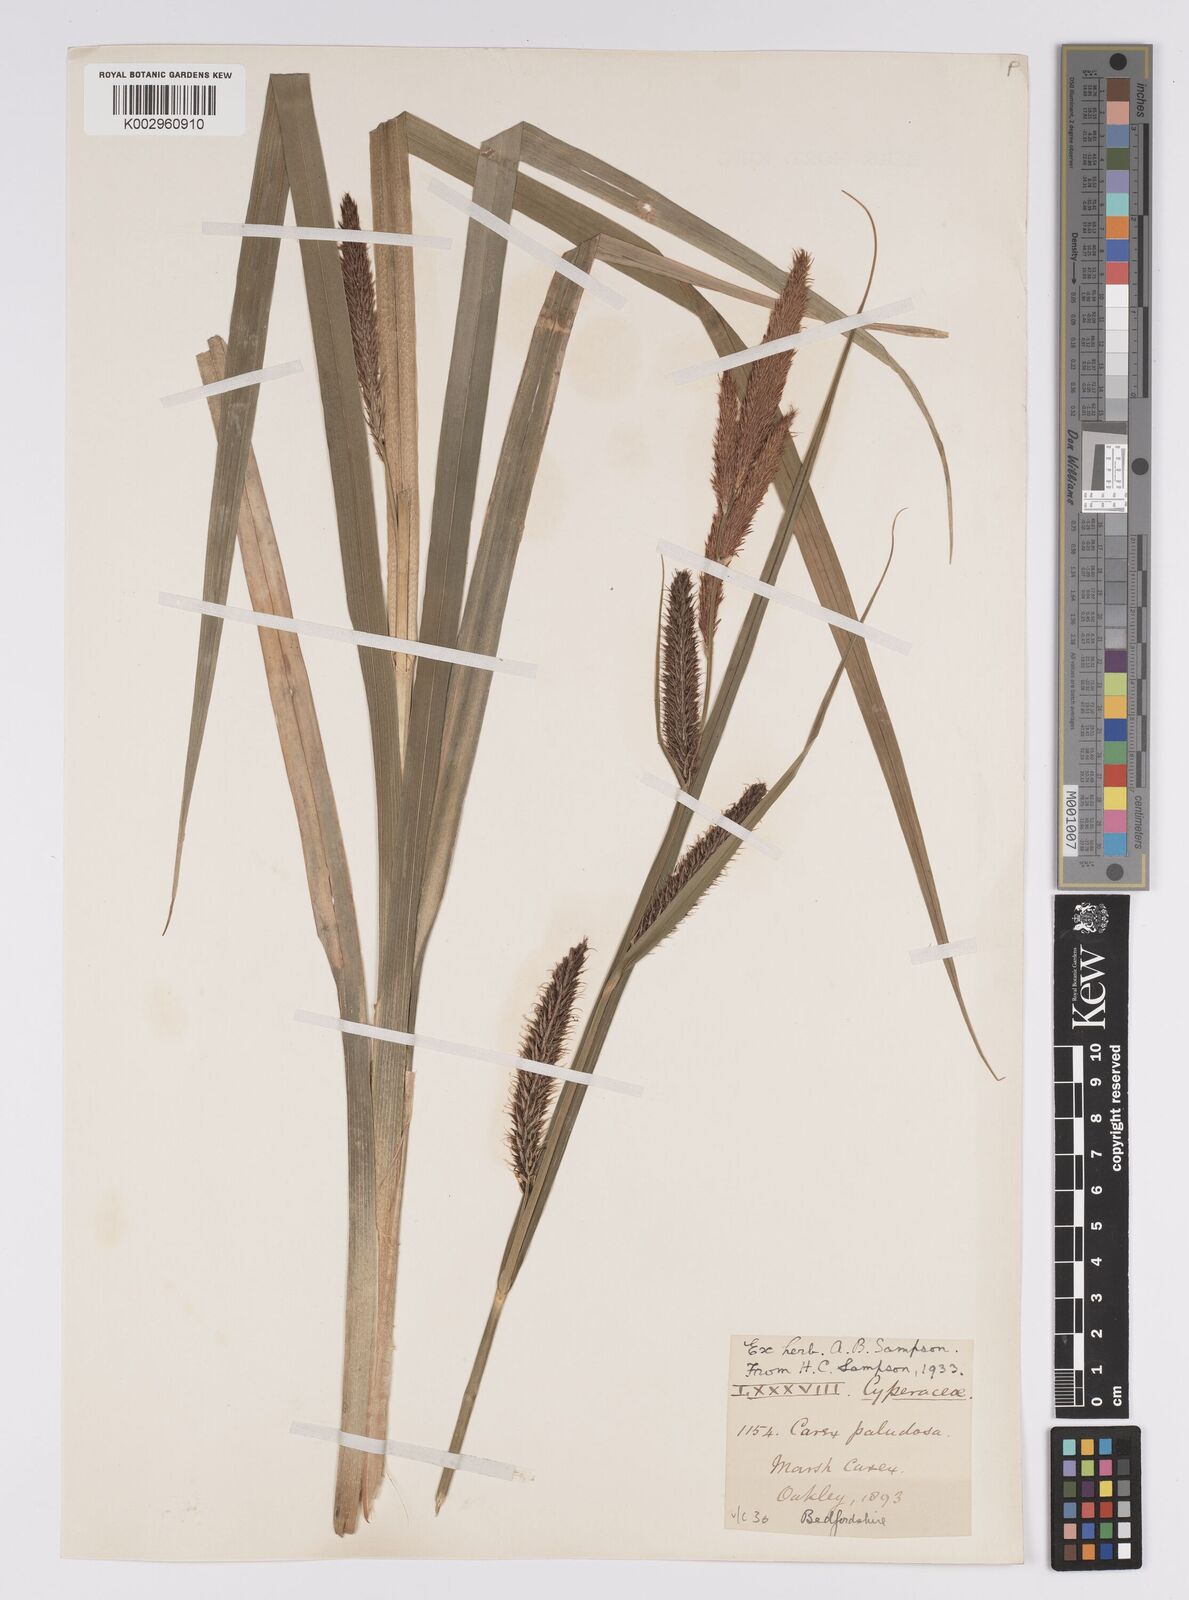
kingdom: Plantae
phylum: Tracheophyta
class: Liliopsida
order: Poales
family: Cyperaceae
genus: Carex
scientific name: Carex riparia
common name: Greater pond-sedge
